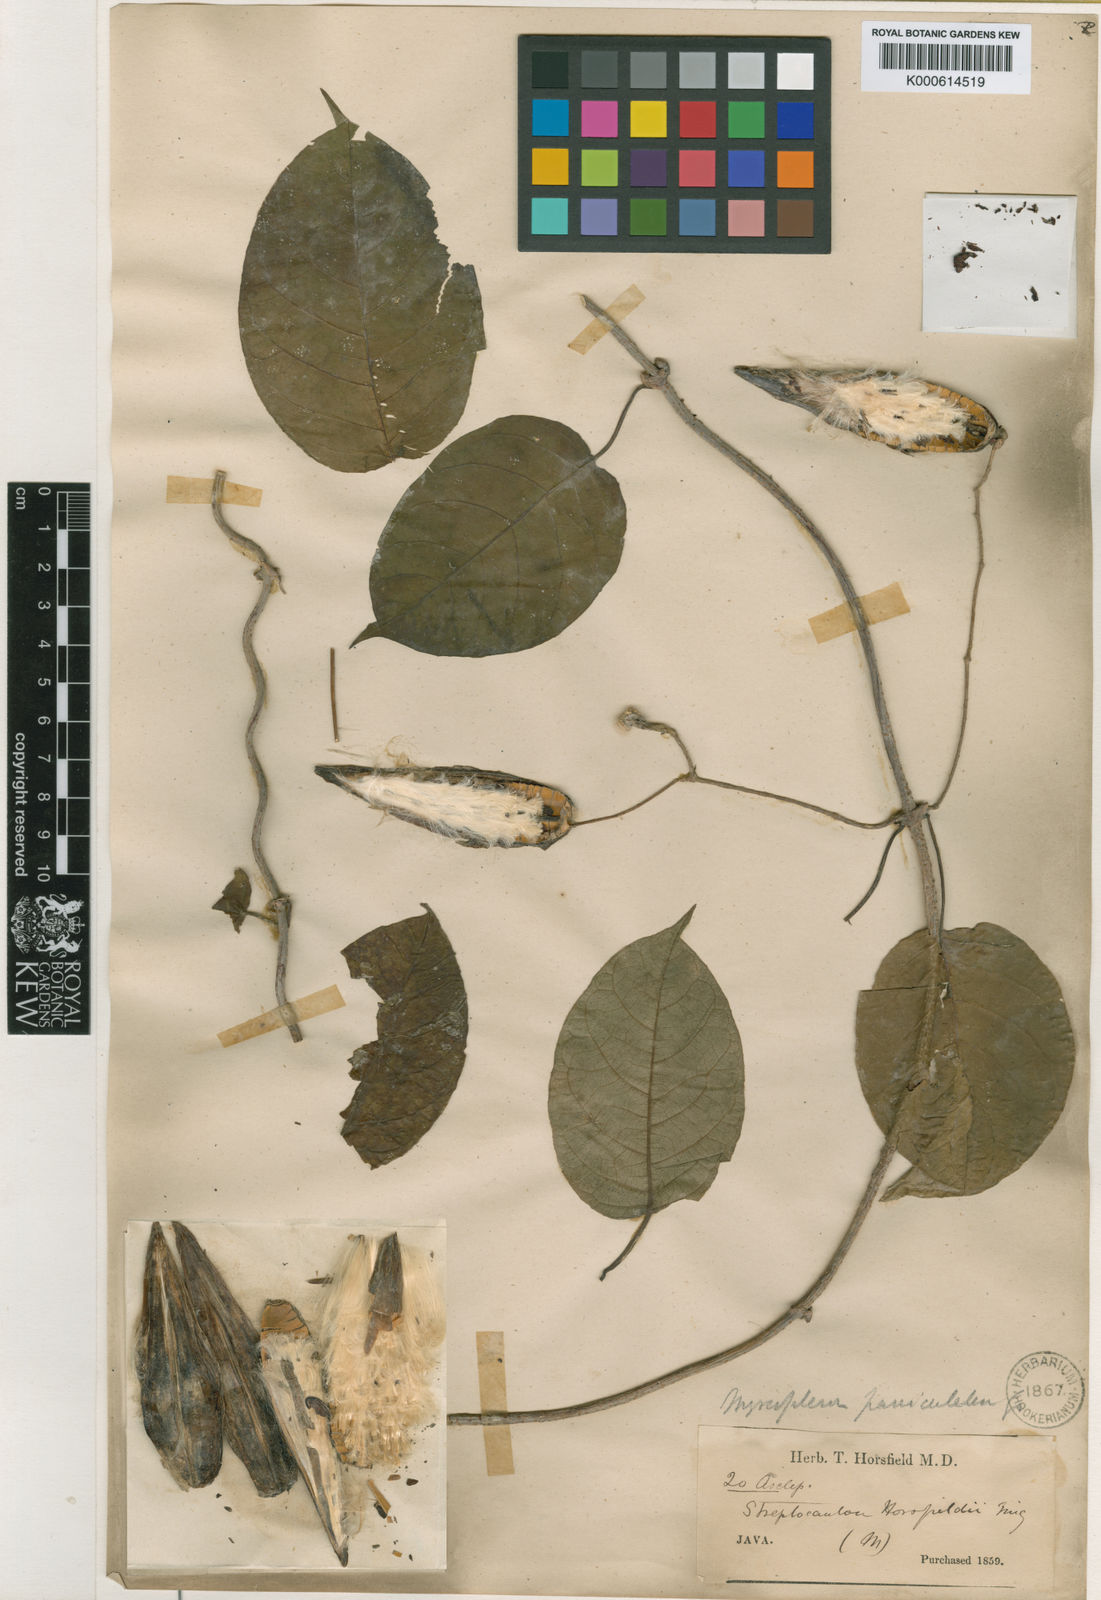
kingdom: Plantae
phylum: Tracheophyta
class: Magnoliopsida
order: Gentianales
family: Apocynaceae
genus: Myriopteron
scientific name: Myriopteron extensum
